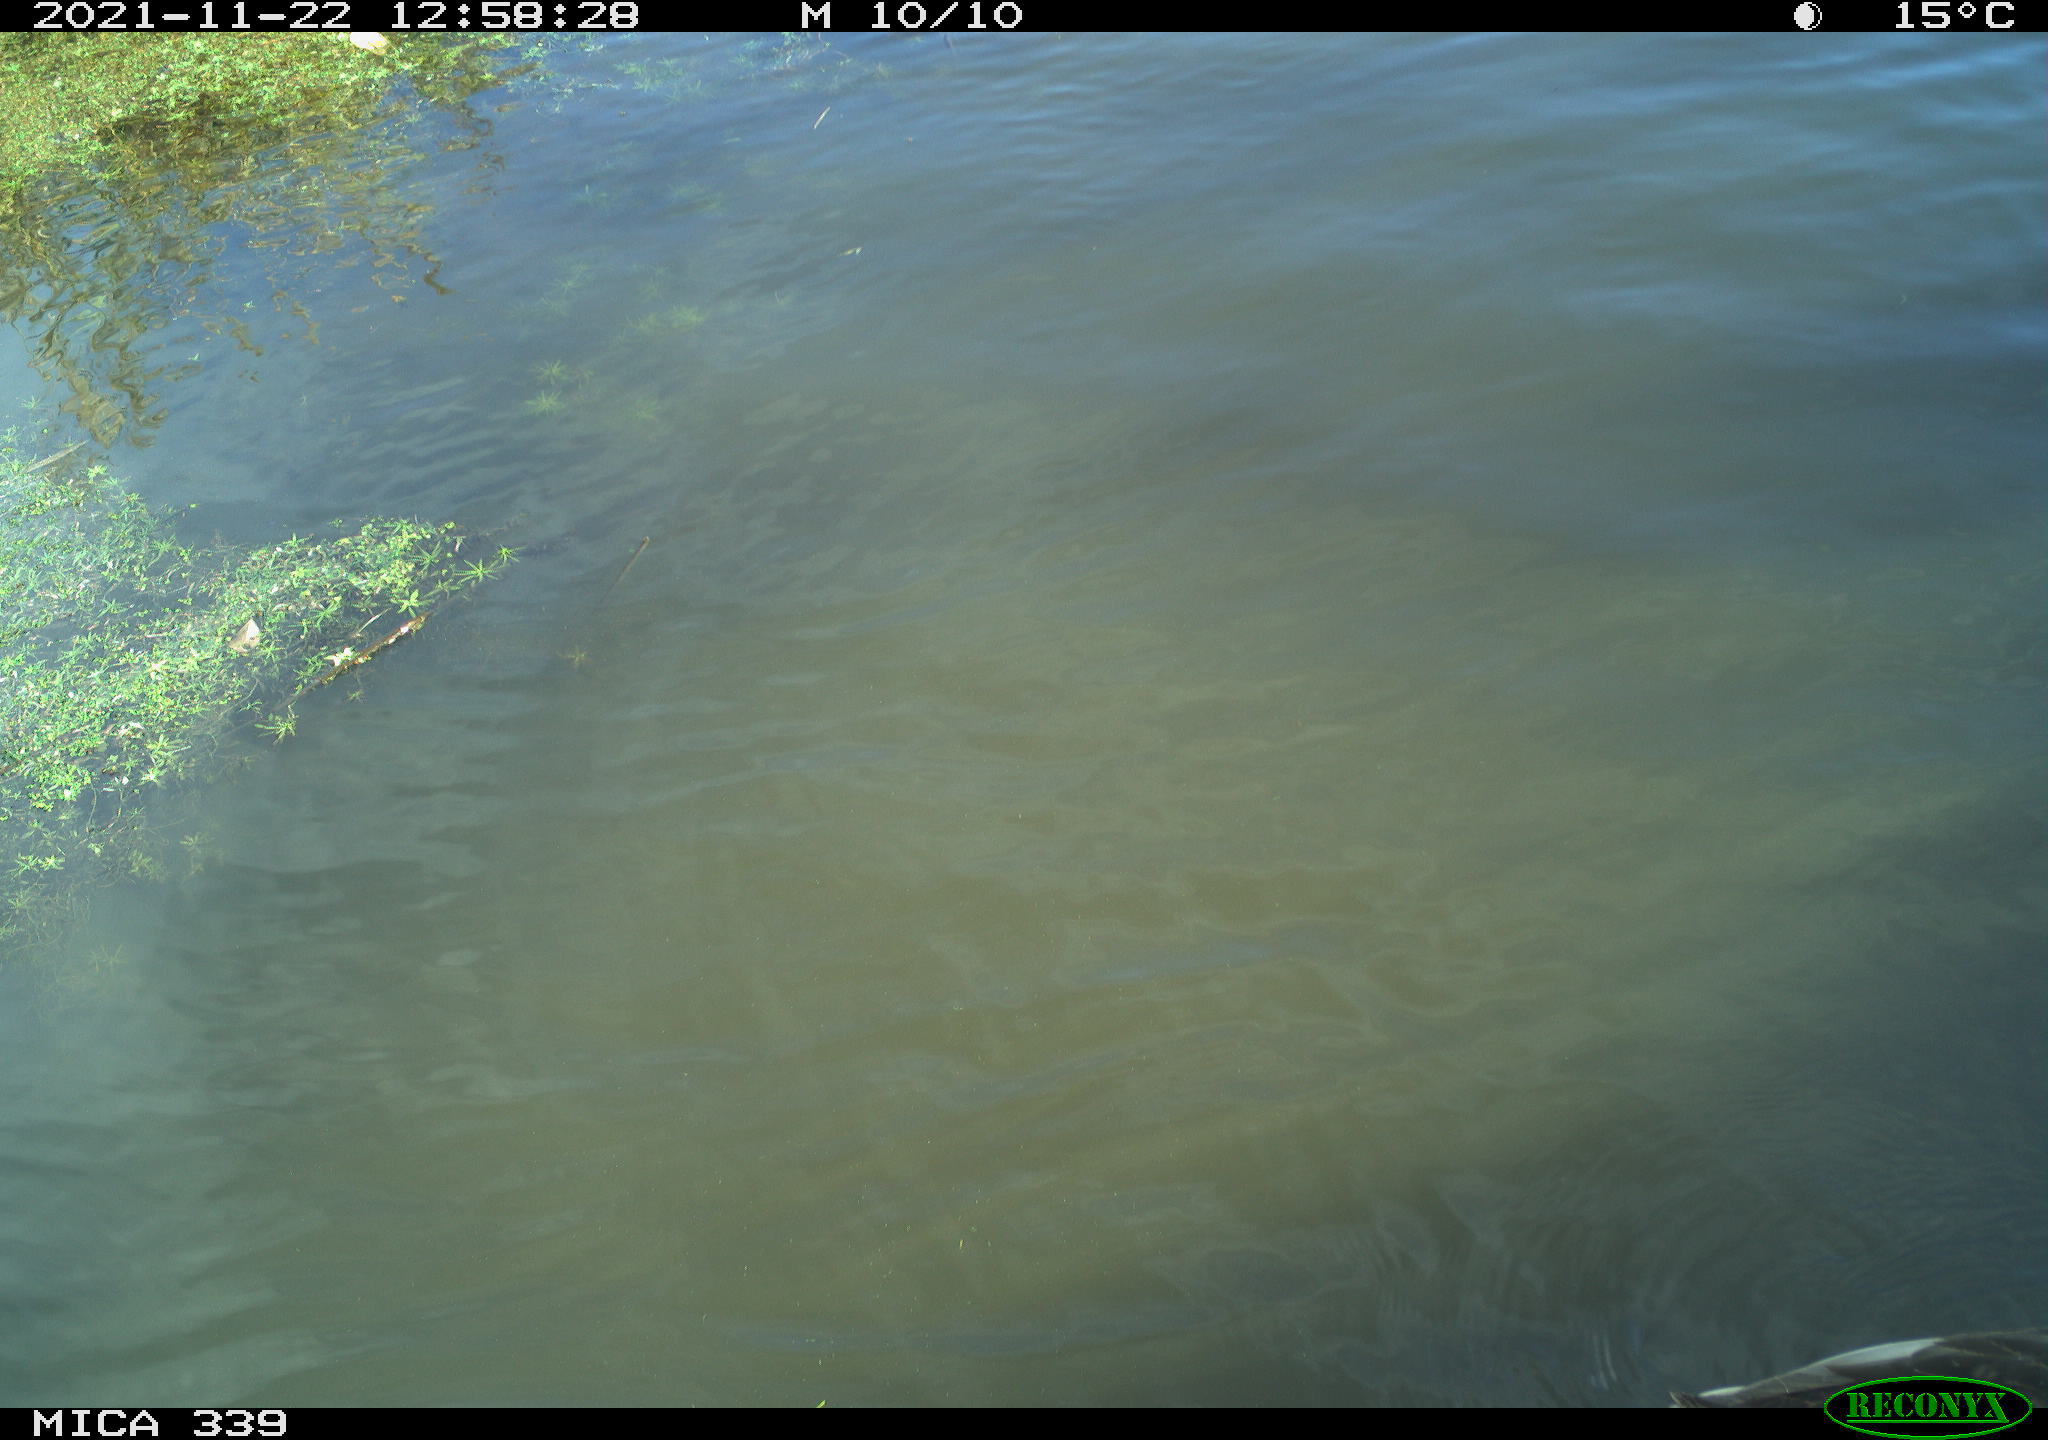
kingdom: Animalia
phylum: Chordata
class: Aves
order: Anseriformes
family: Anatidae
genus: Anas
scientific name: Anas platyrhynchos
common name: Mallard
